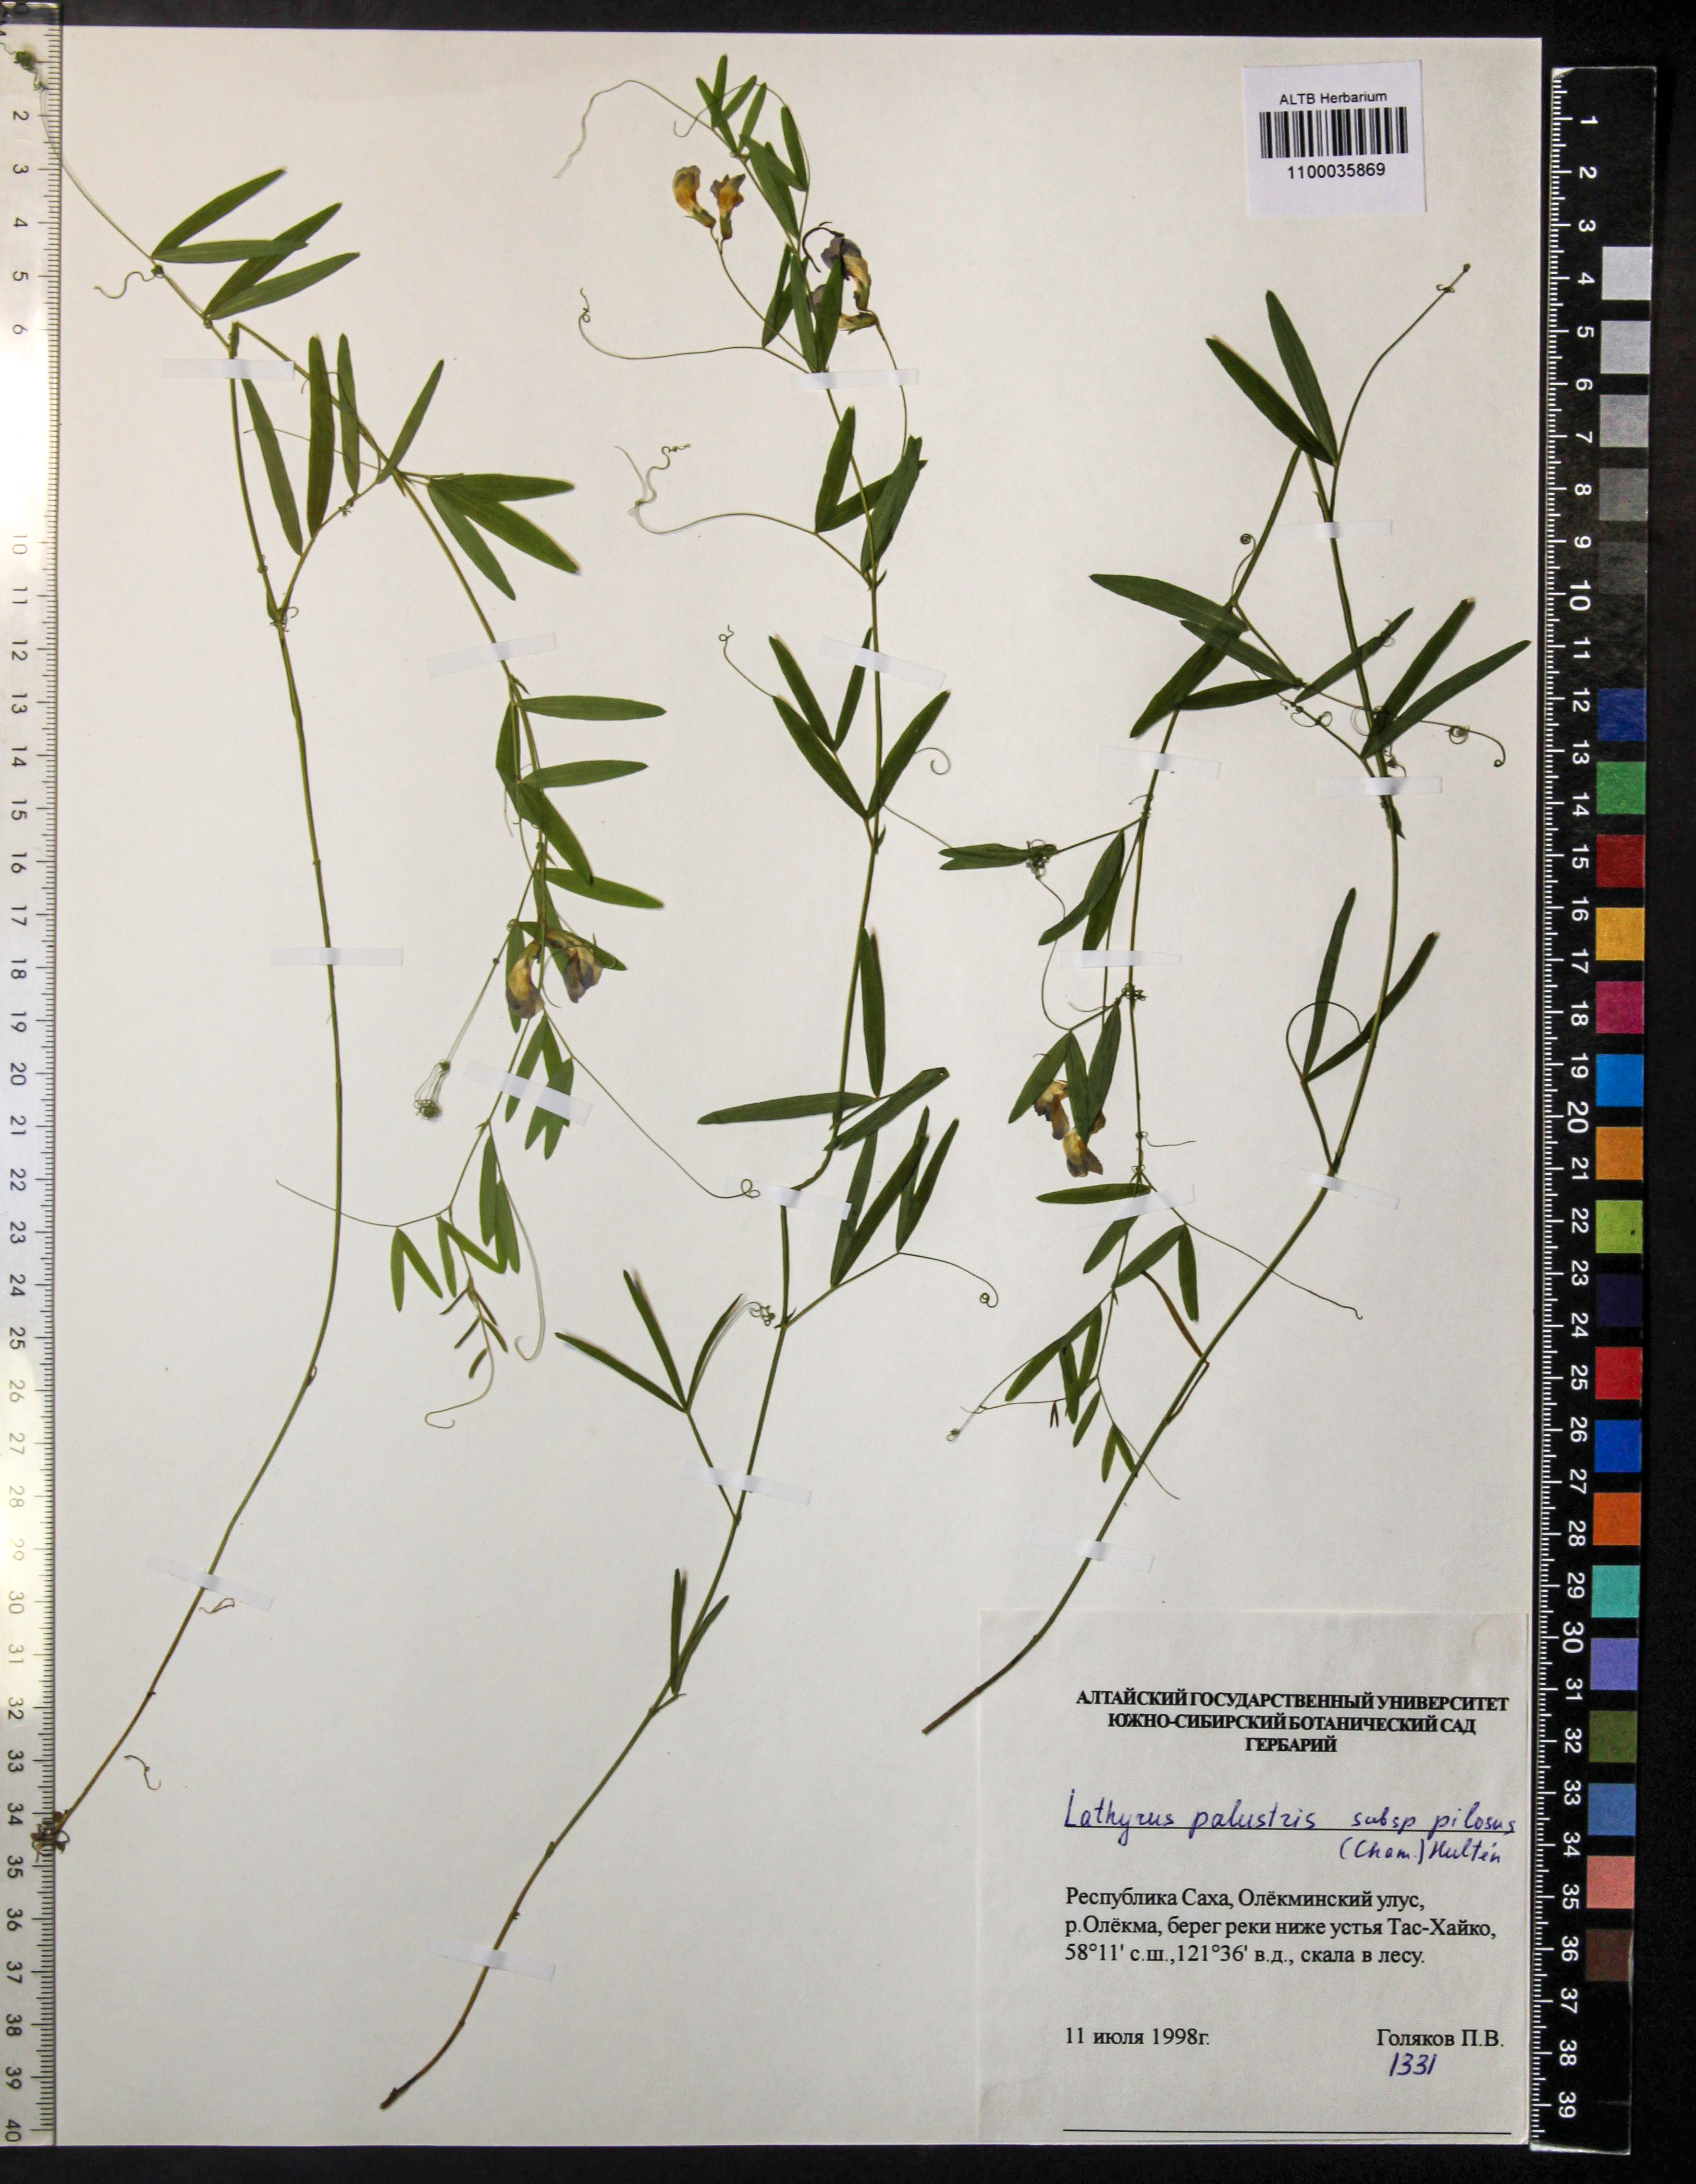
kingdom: Plantae
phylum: Tracheophyta
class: Magnoliopsida
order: Fabales
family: Fabaceae
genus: Lathyrus
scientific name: Lathyrus palustris
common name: Marsh pea
